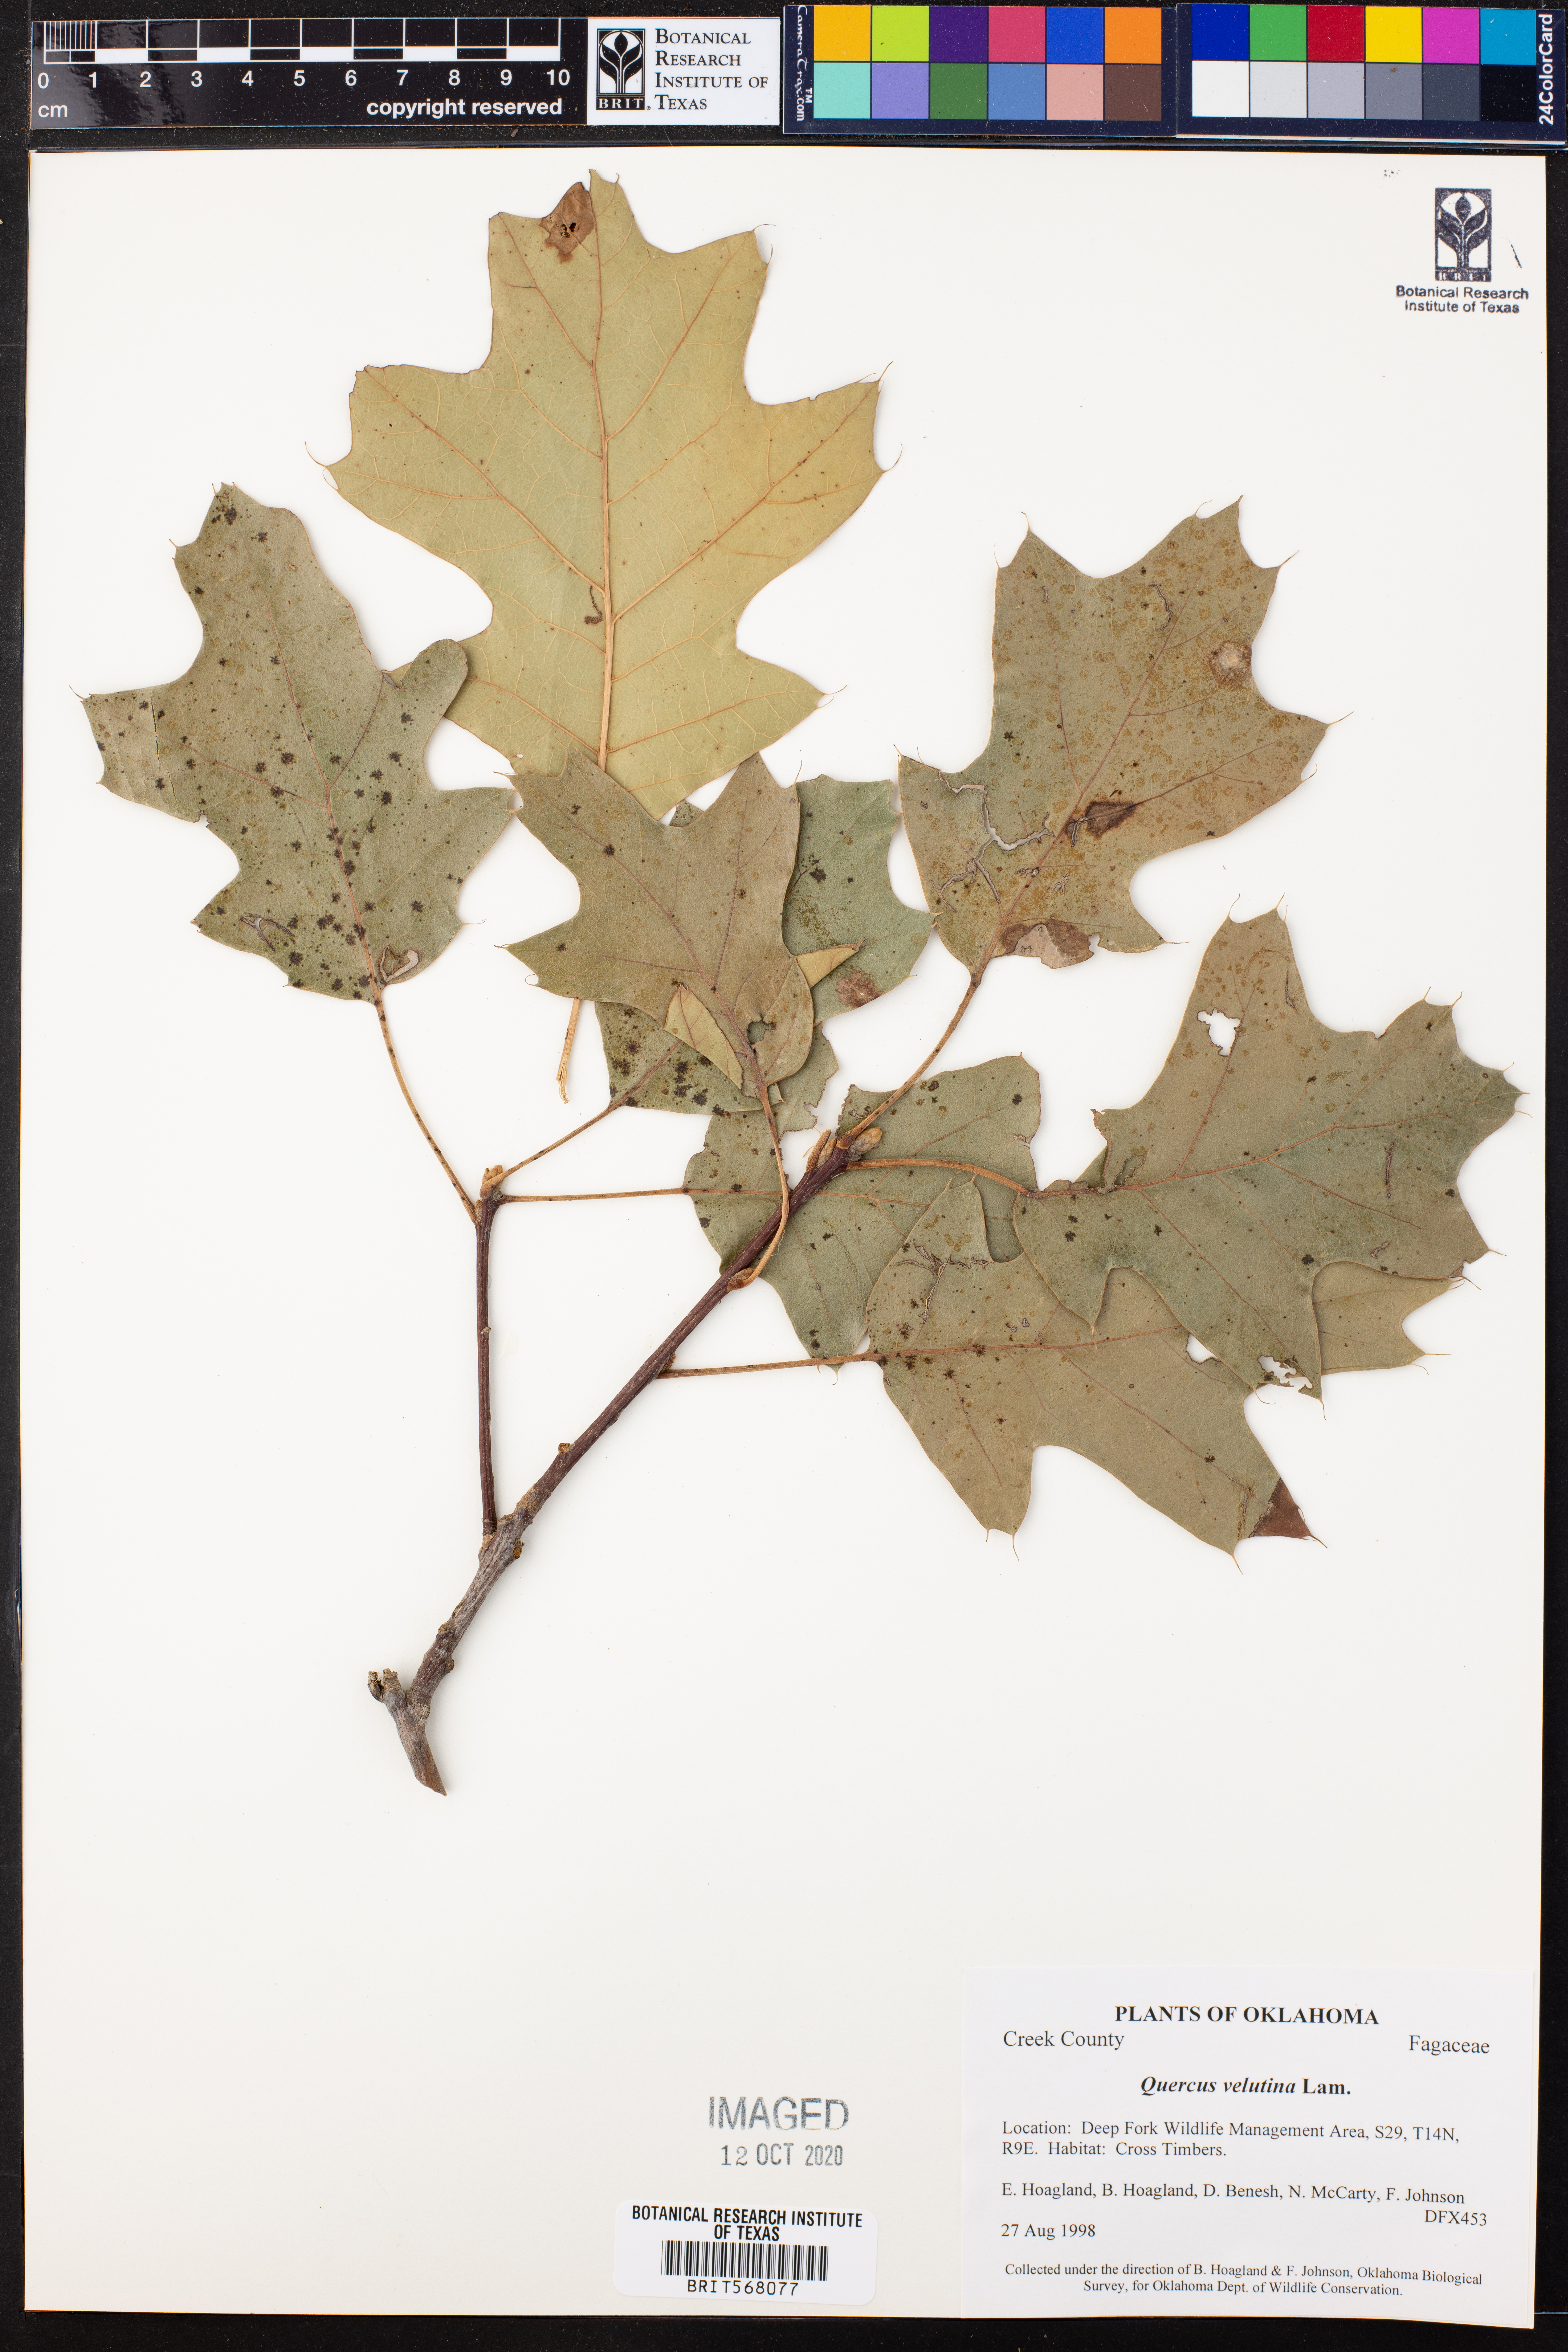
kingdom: Plantae
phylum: Tracheophyta
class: Magnoliopsida
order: Fagales
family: Fagaceae
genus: Quercus
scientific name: Quercus velutina
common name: Black oak
